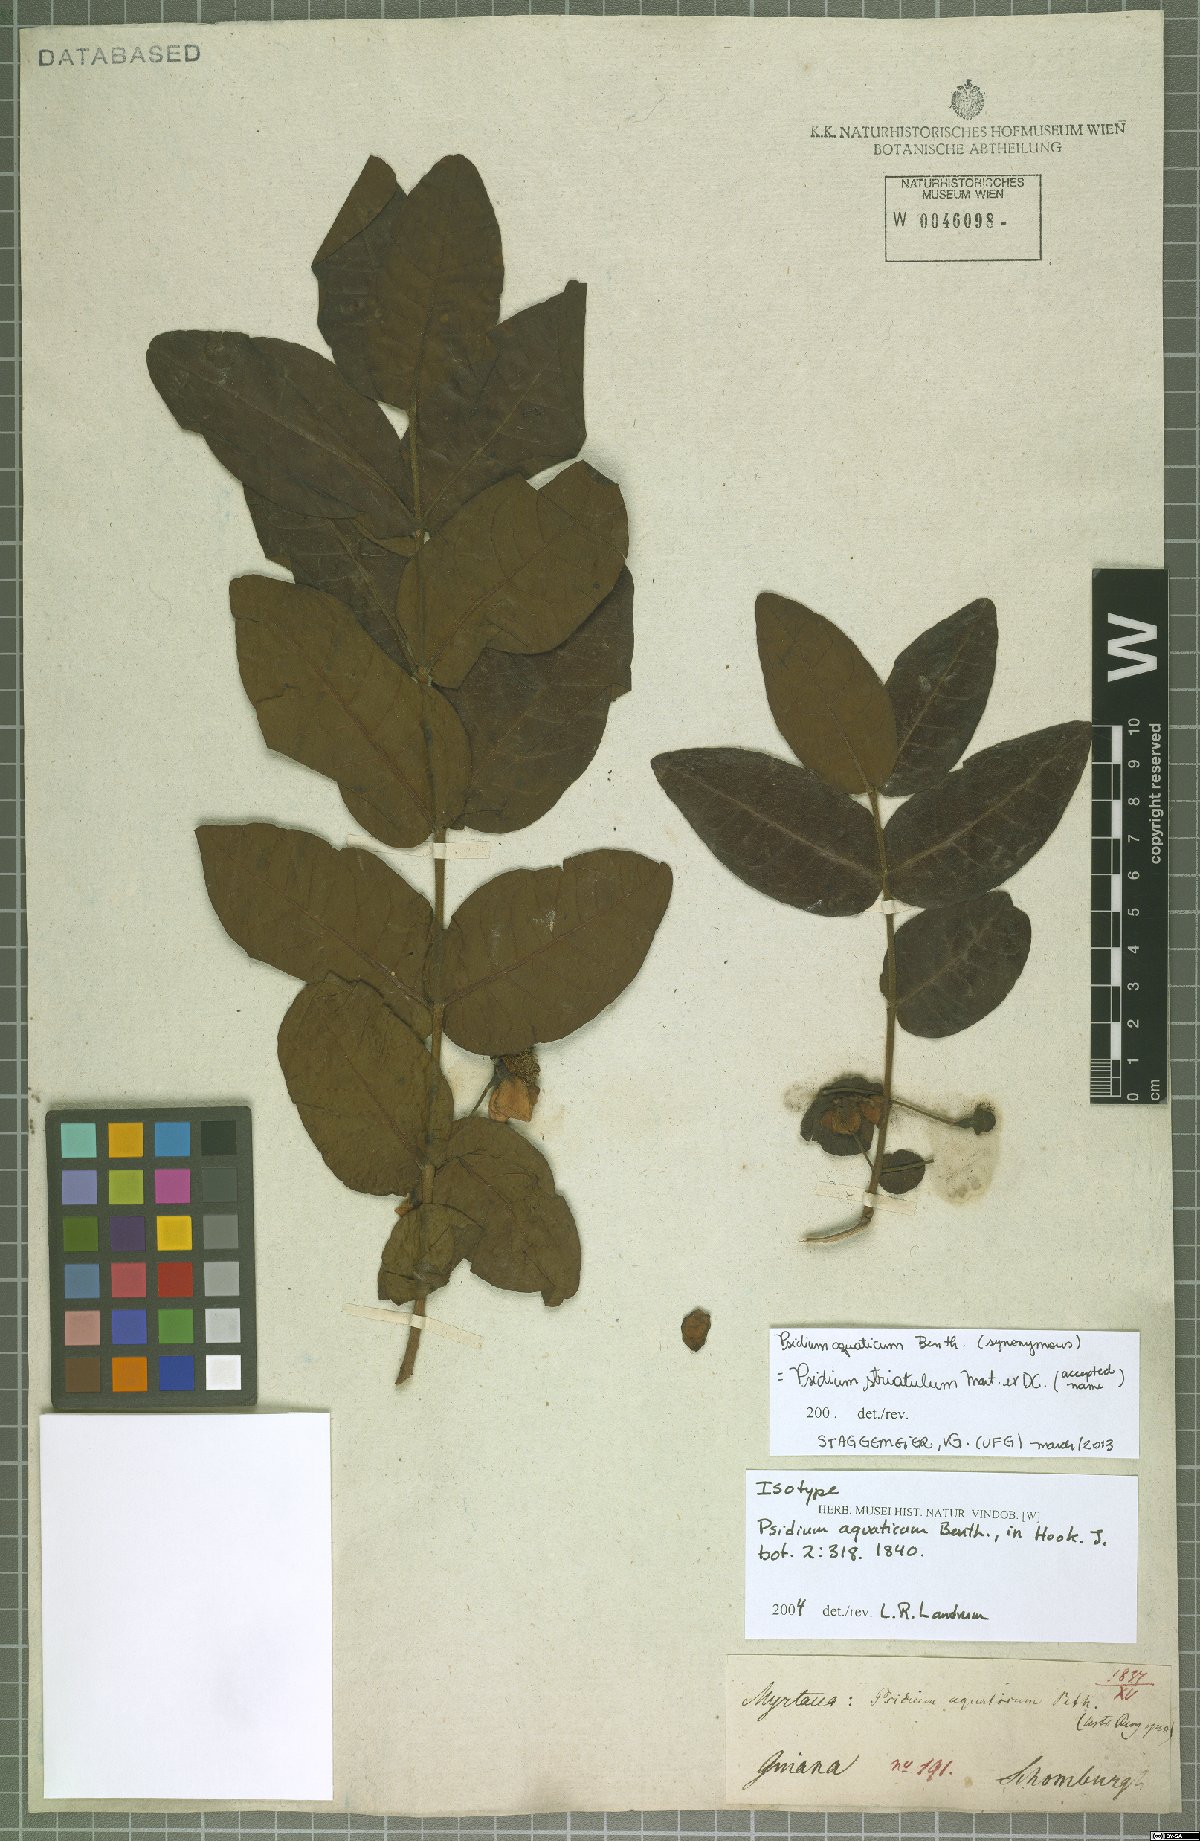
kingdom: Plantae
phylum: Tracheophyta
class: Magnoliopsida
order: Myrtales
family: Myrtaceae
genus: Psidium
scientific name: Psidium striatulum
